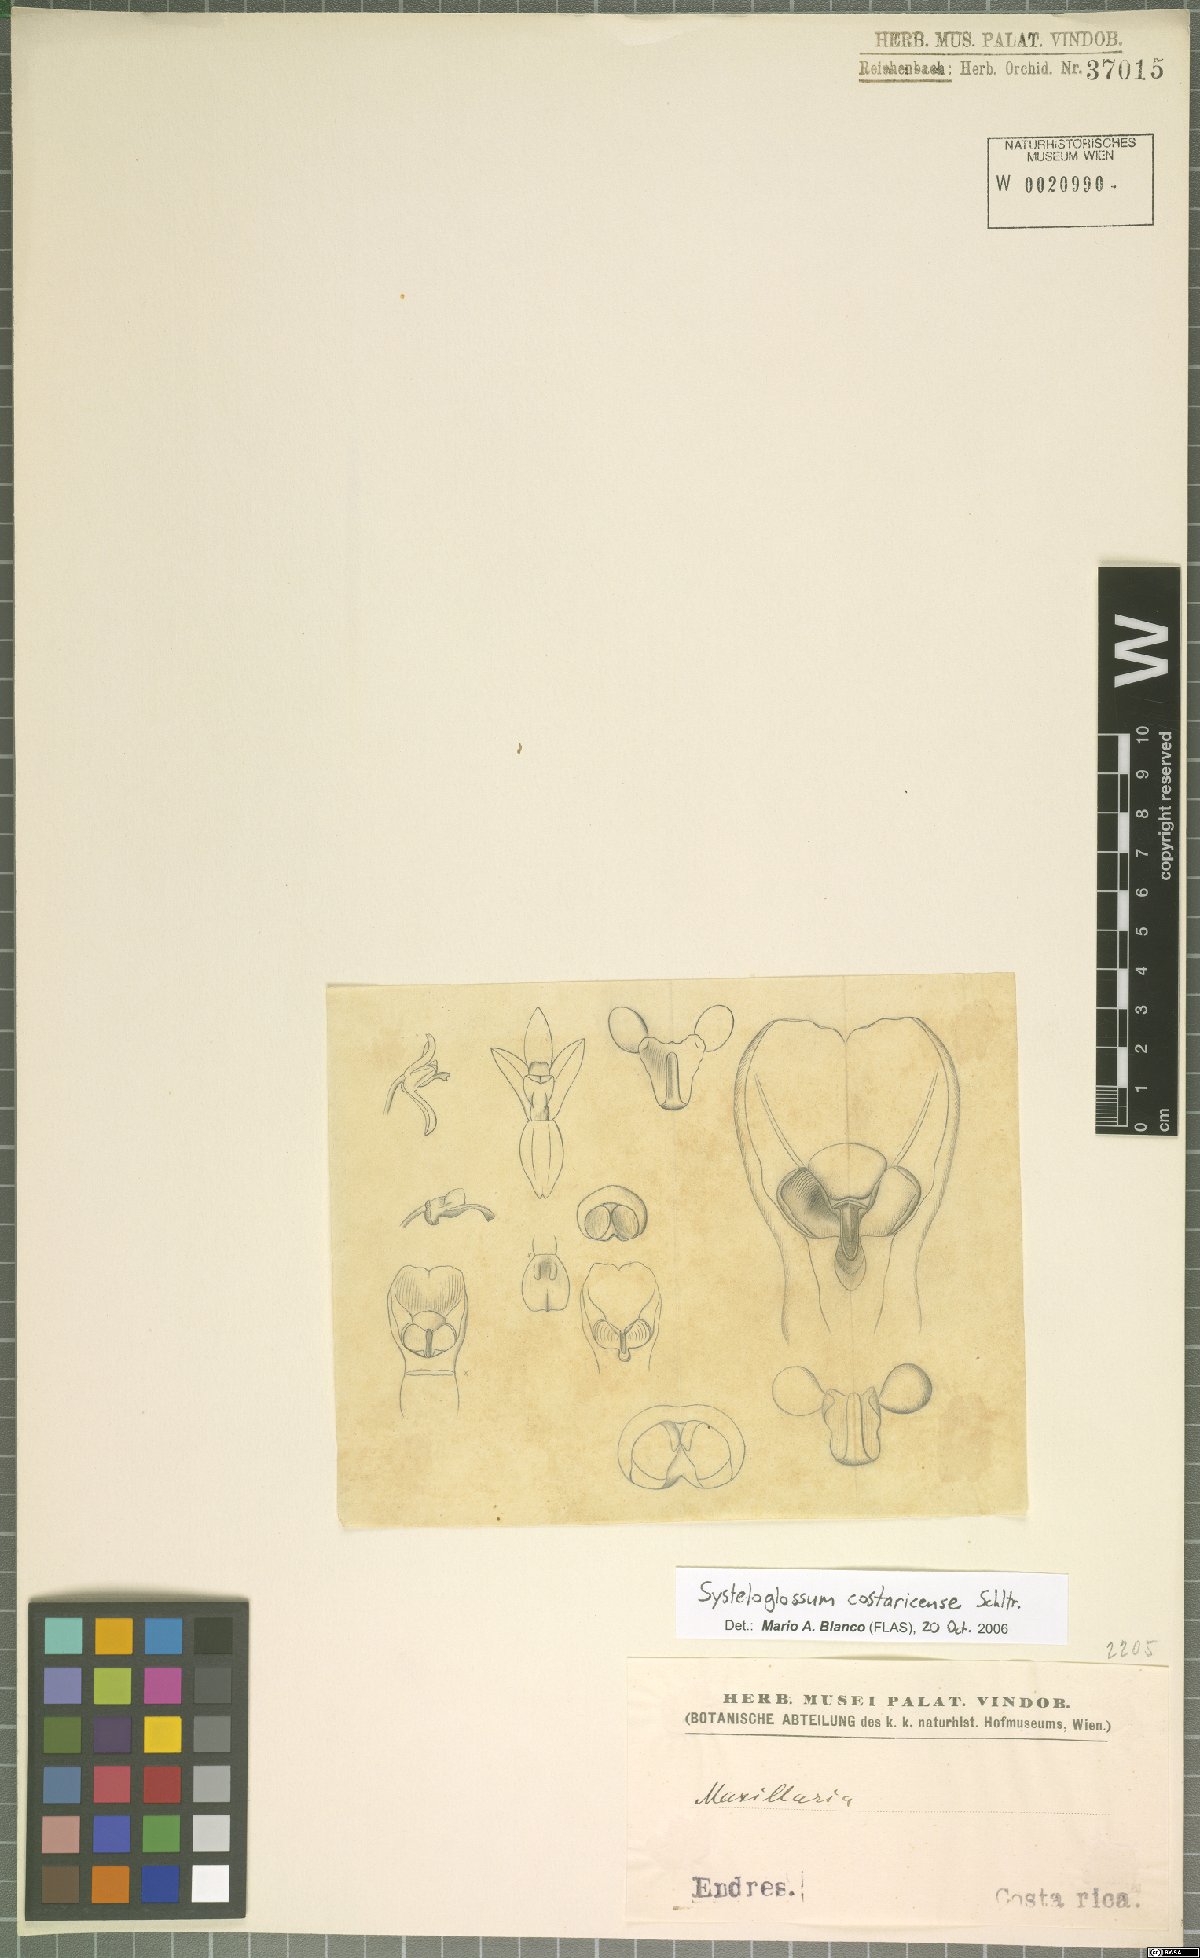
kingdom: Plantae
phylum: Tracheophyta
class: Liliopsida
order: Asparagales
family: Orchidaceae
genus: Systeloglossum
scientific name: Systeloglossum costaricense
